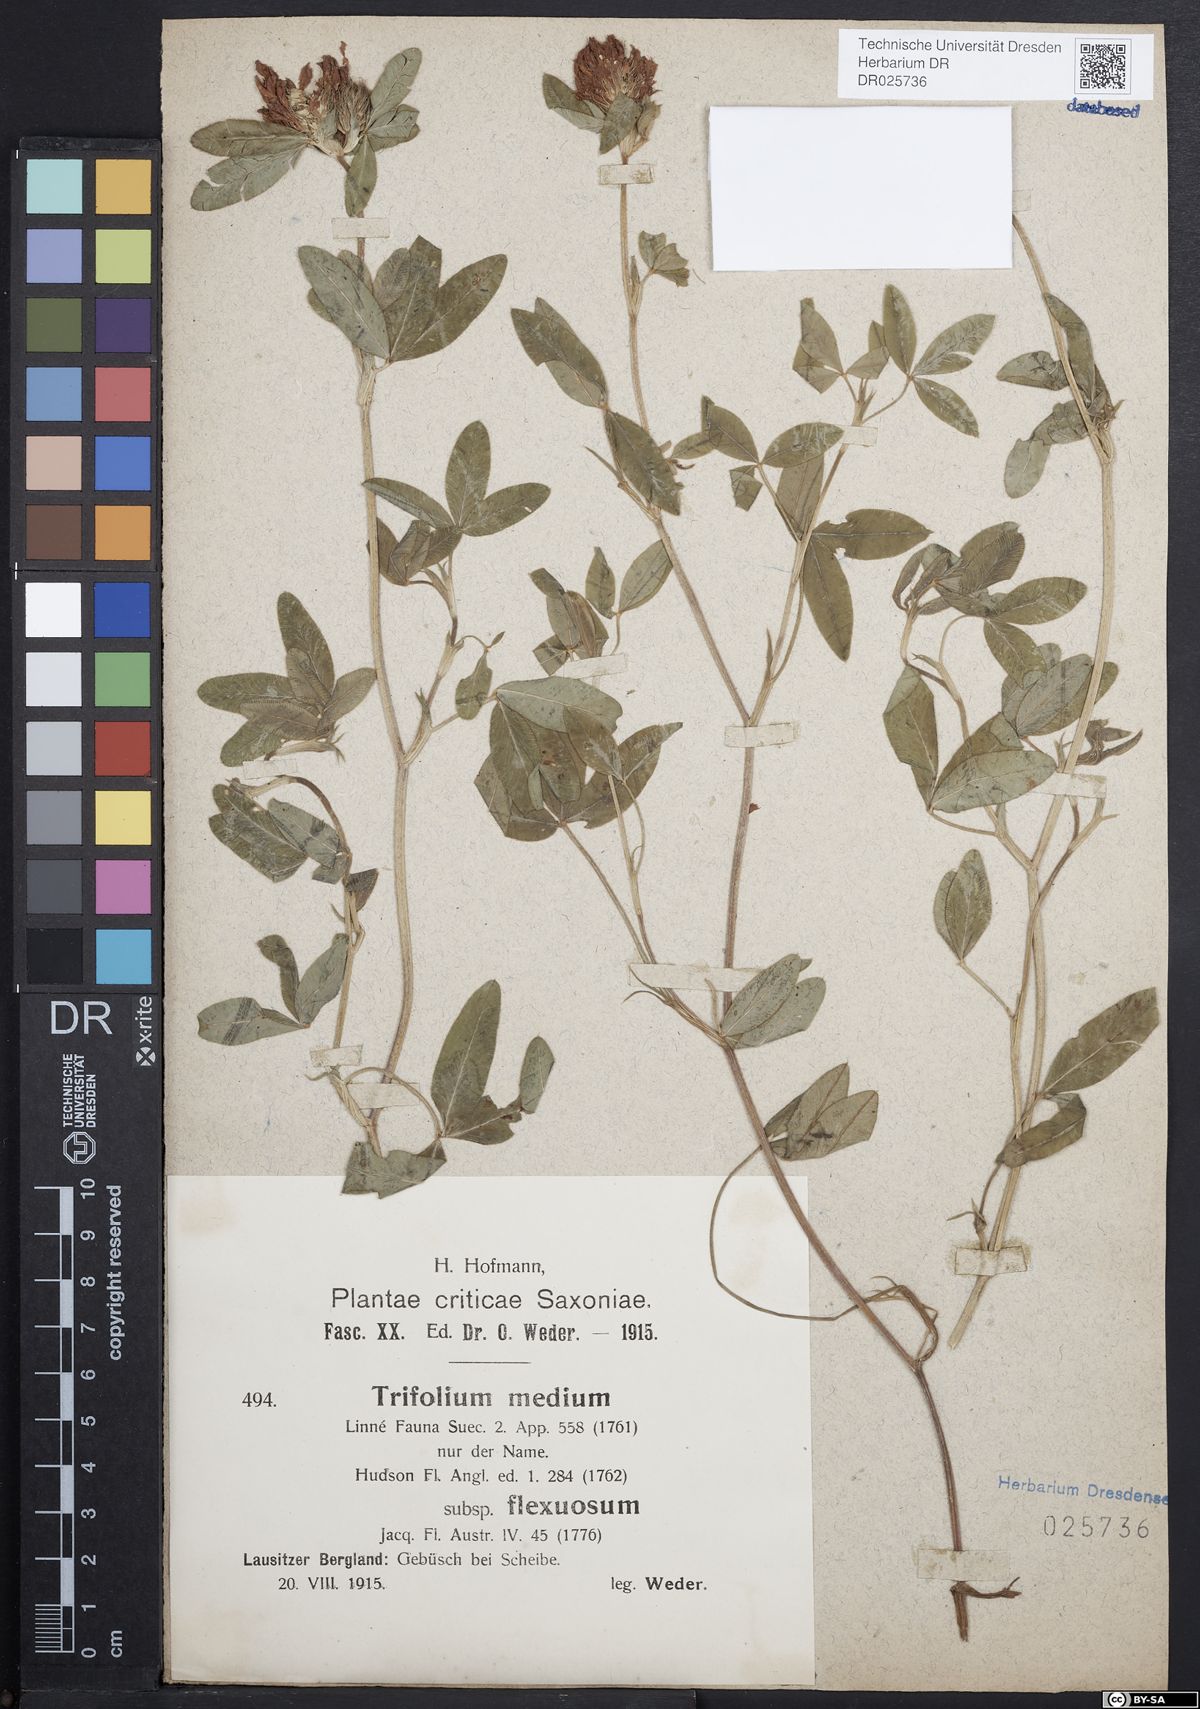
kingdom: Plantae
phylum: Tracheophyta
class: Magnoliopsida
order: Fabales
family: Fabaceae
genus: Trifolium
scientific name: Trifolium medium
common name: Zigzag clover
